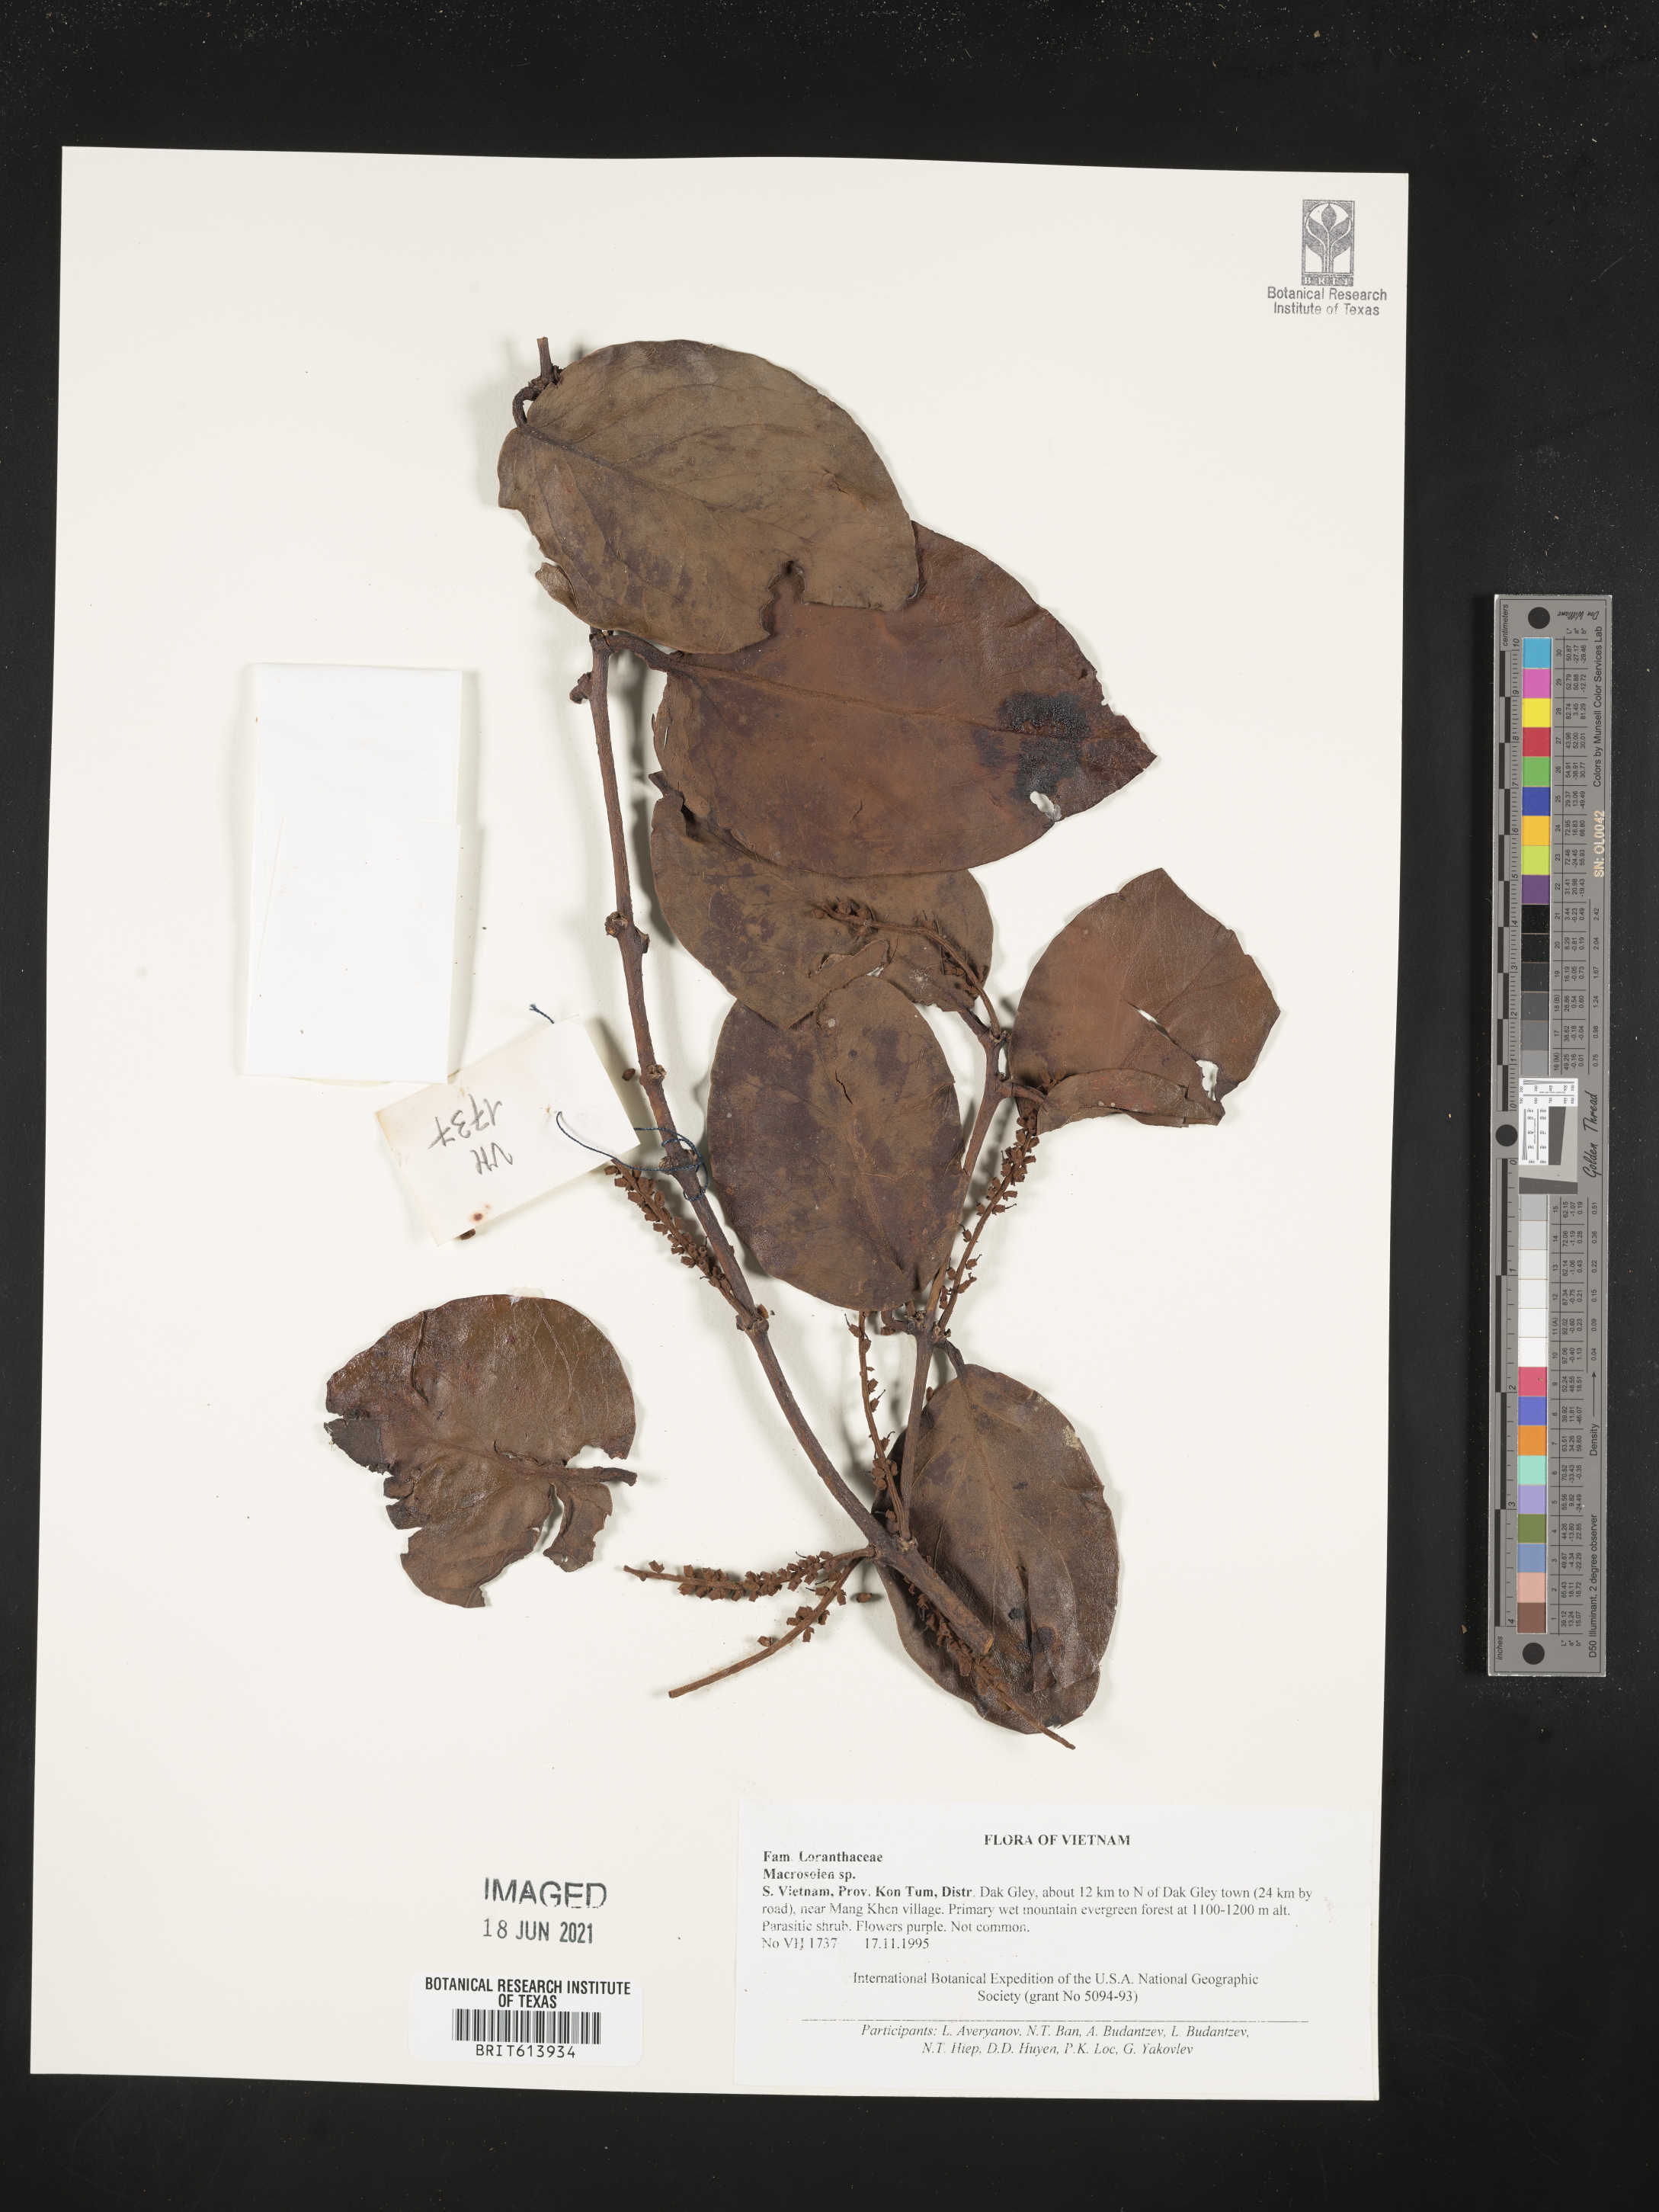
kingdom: Plantae
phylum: Tracheophyta
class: Magnoliopsida
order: Santalales
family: Loranthaceae
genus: Macrosolen
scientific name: Macrosolen
